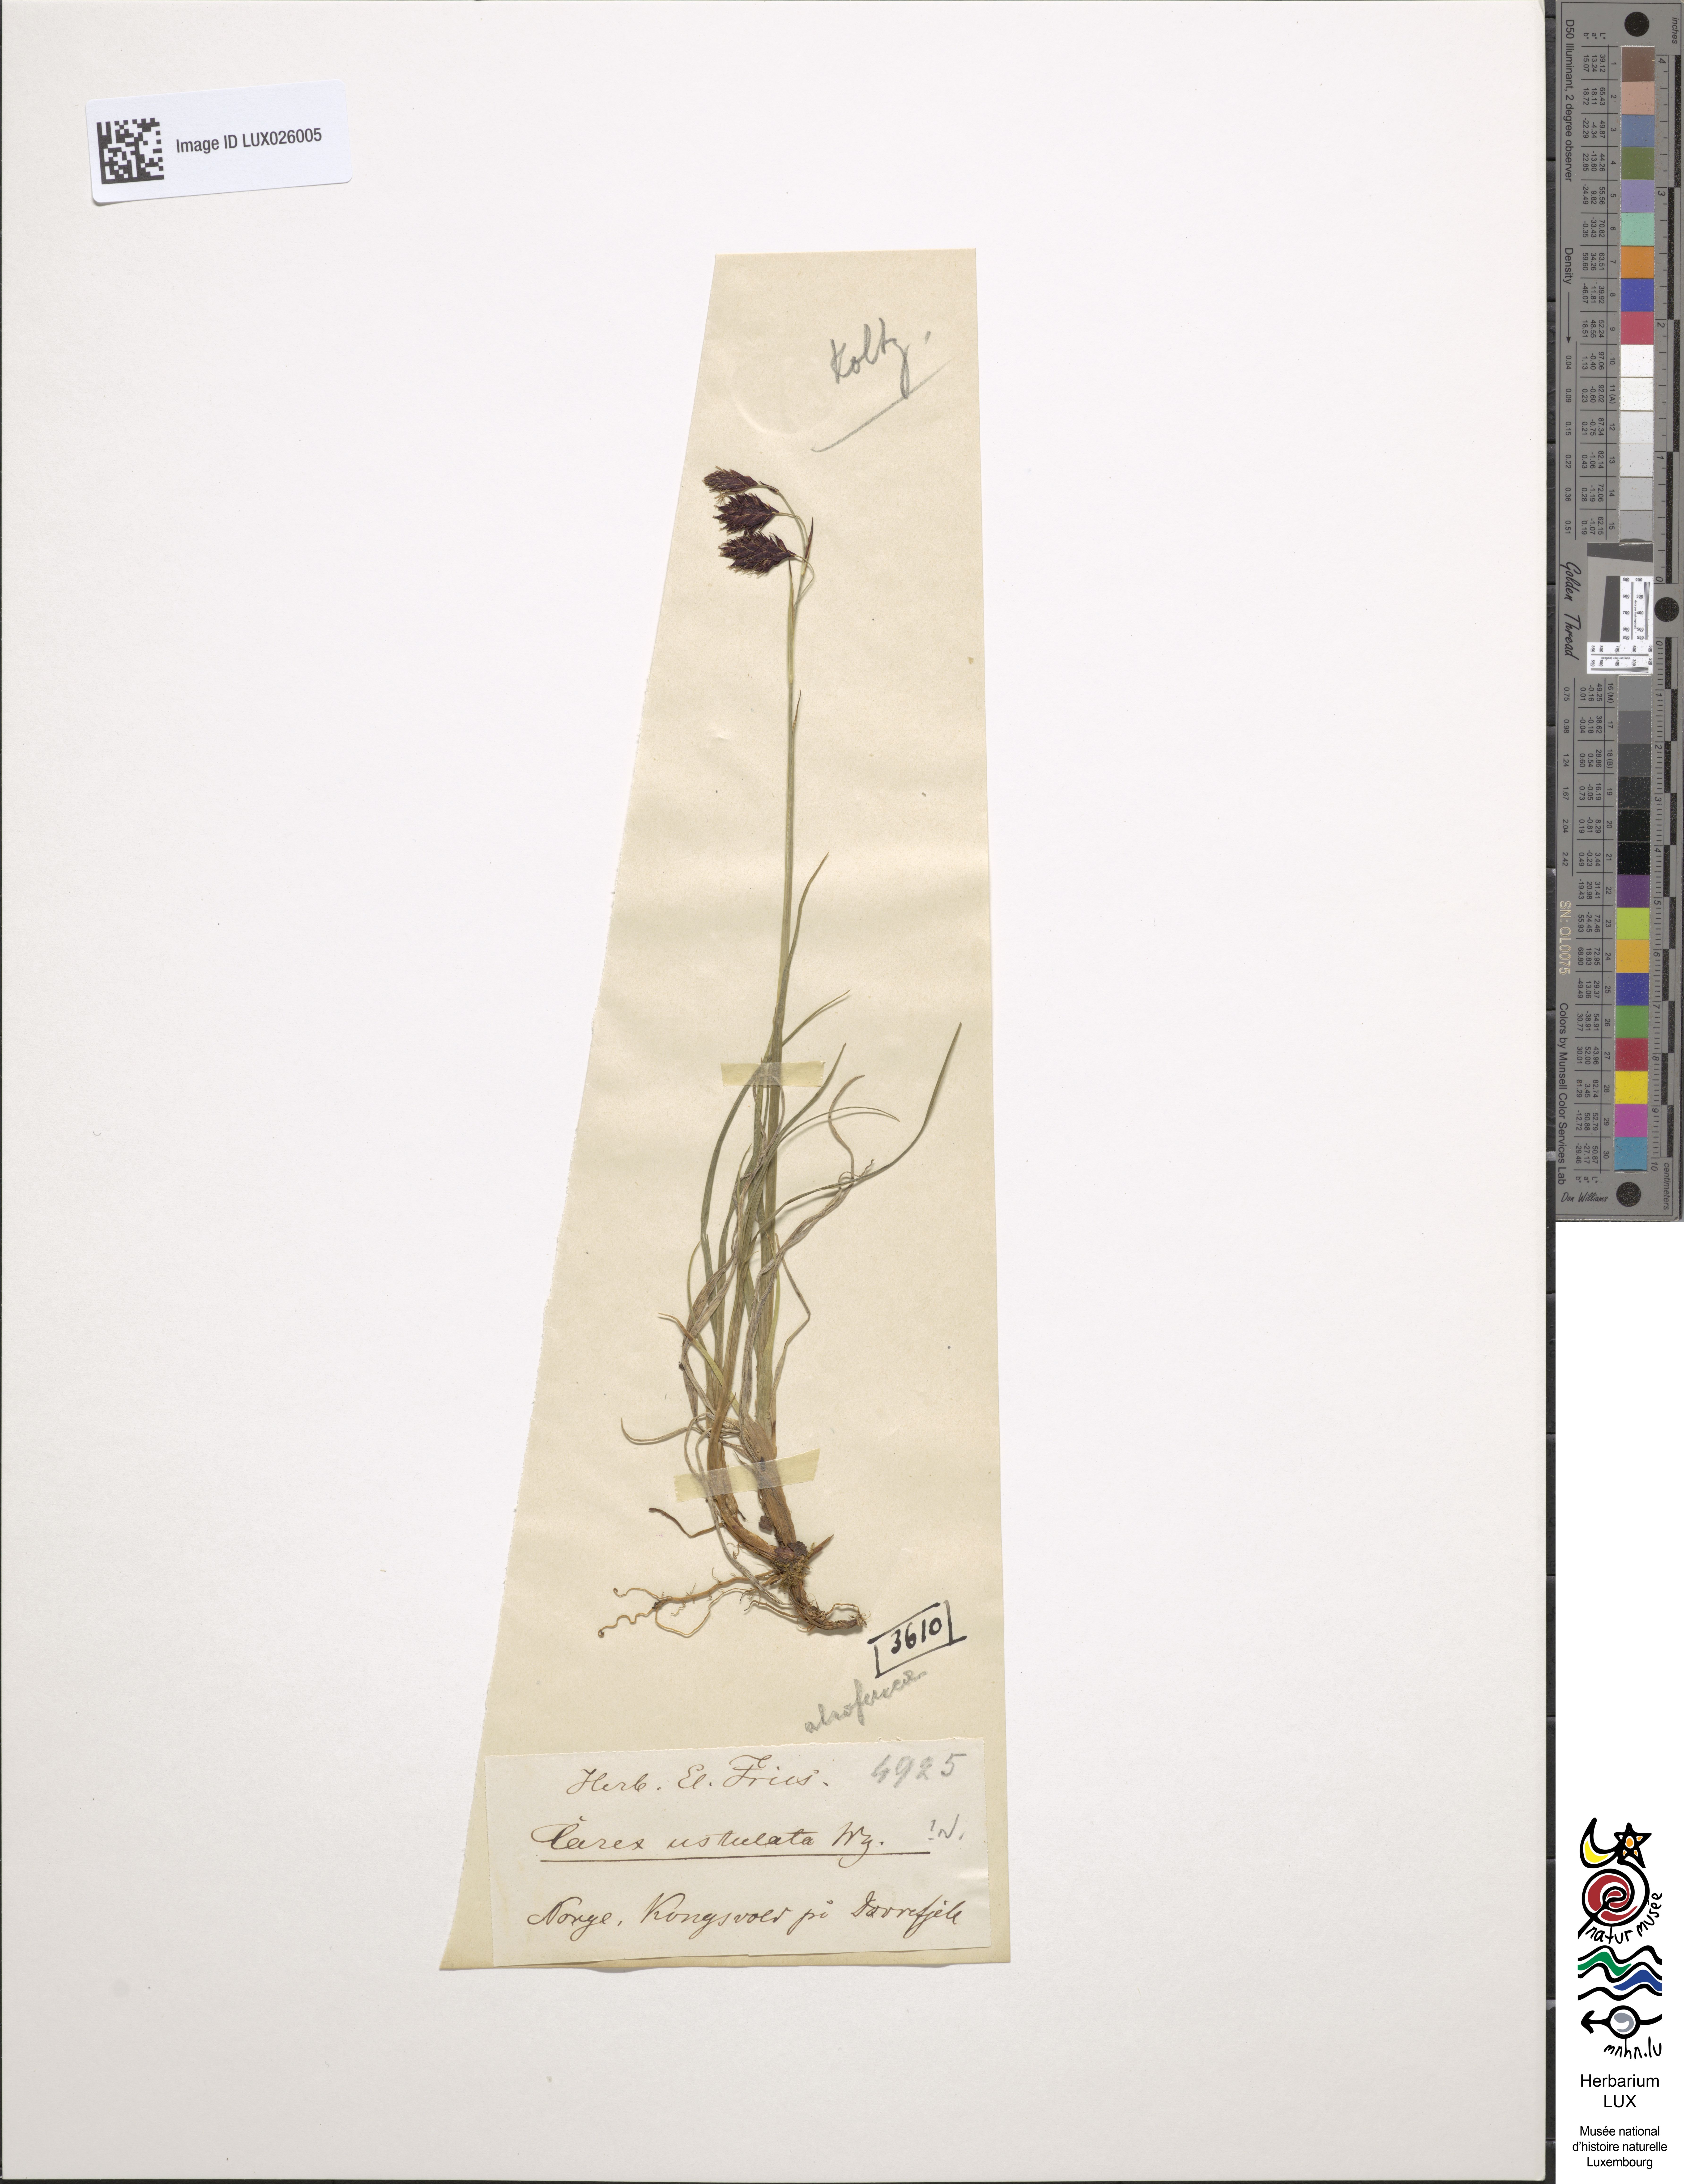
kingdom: Plantae
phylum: Tracheophyta
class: Liliopsida
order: Poales
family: Cyperaceae
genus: Carex
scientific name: Carex atrofusca
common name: Scorched alpine-sedge
